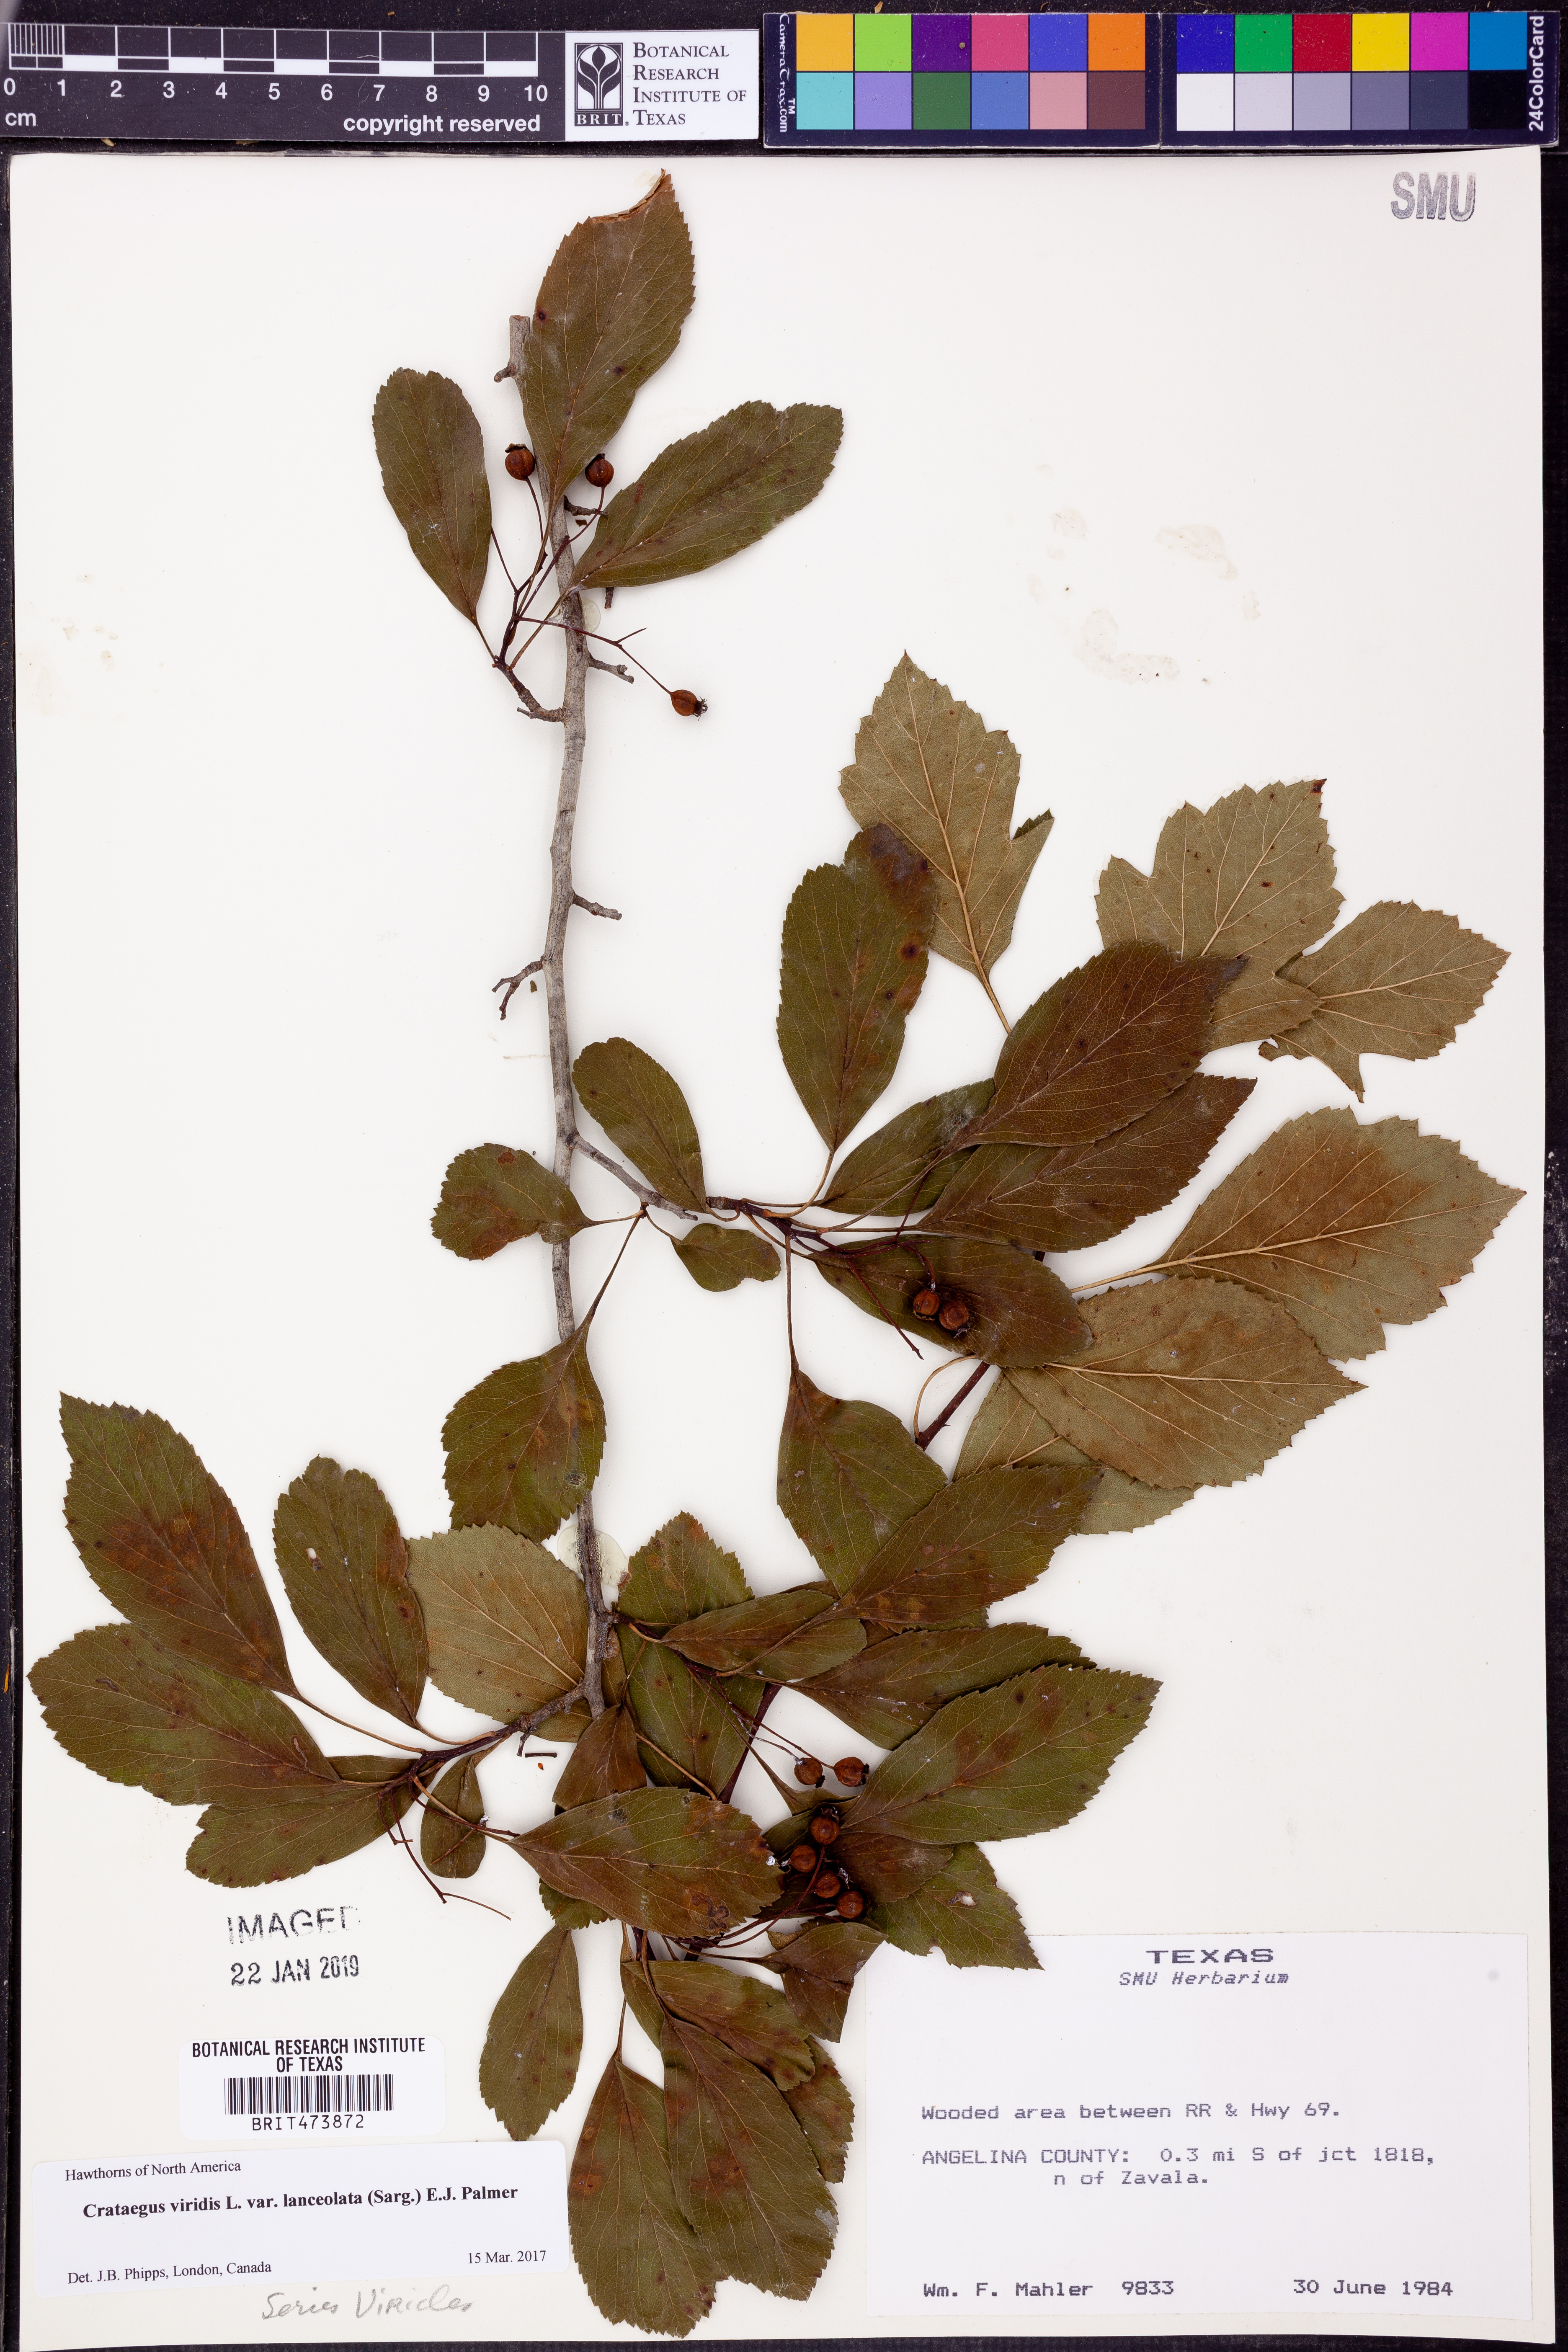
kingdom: Plantae
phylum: Tracheophyta
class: Magnoliopsida
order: Rosales
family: Rosaceae
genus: Crataegus
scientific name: Crataegus viridis
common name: Southernthorn
